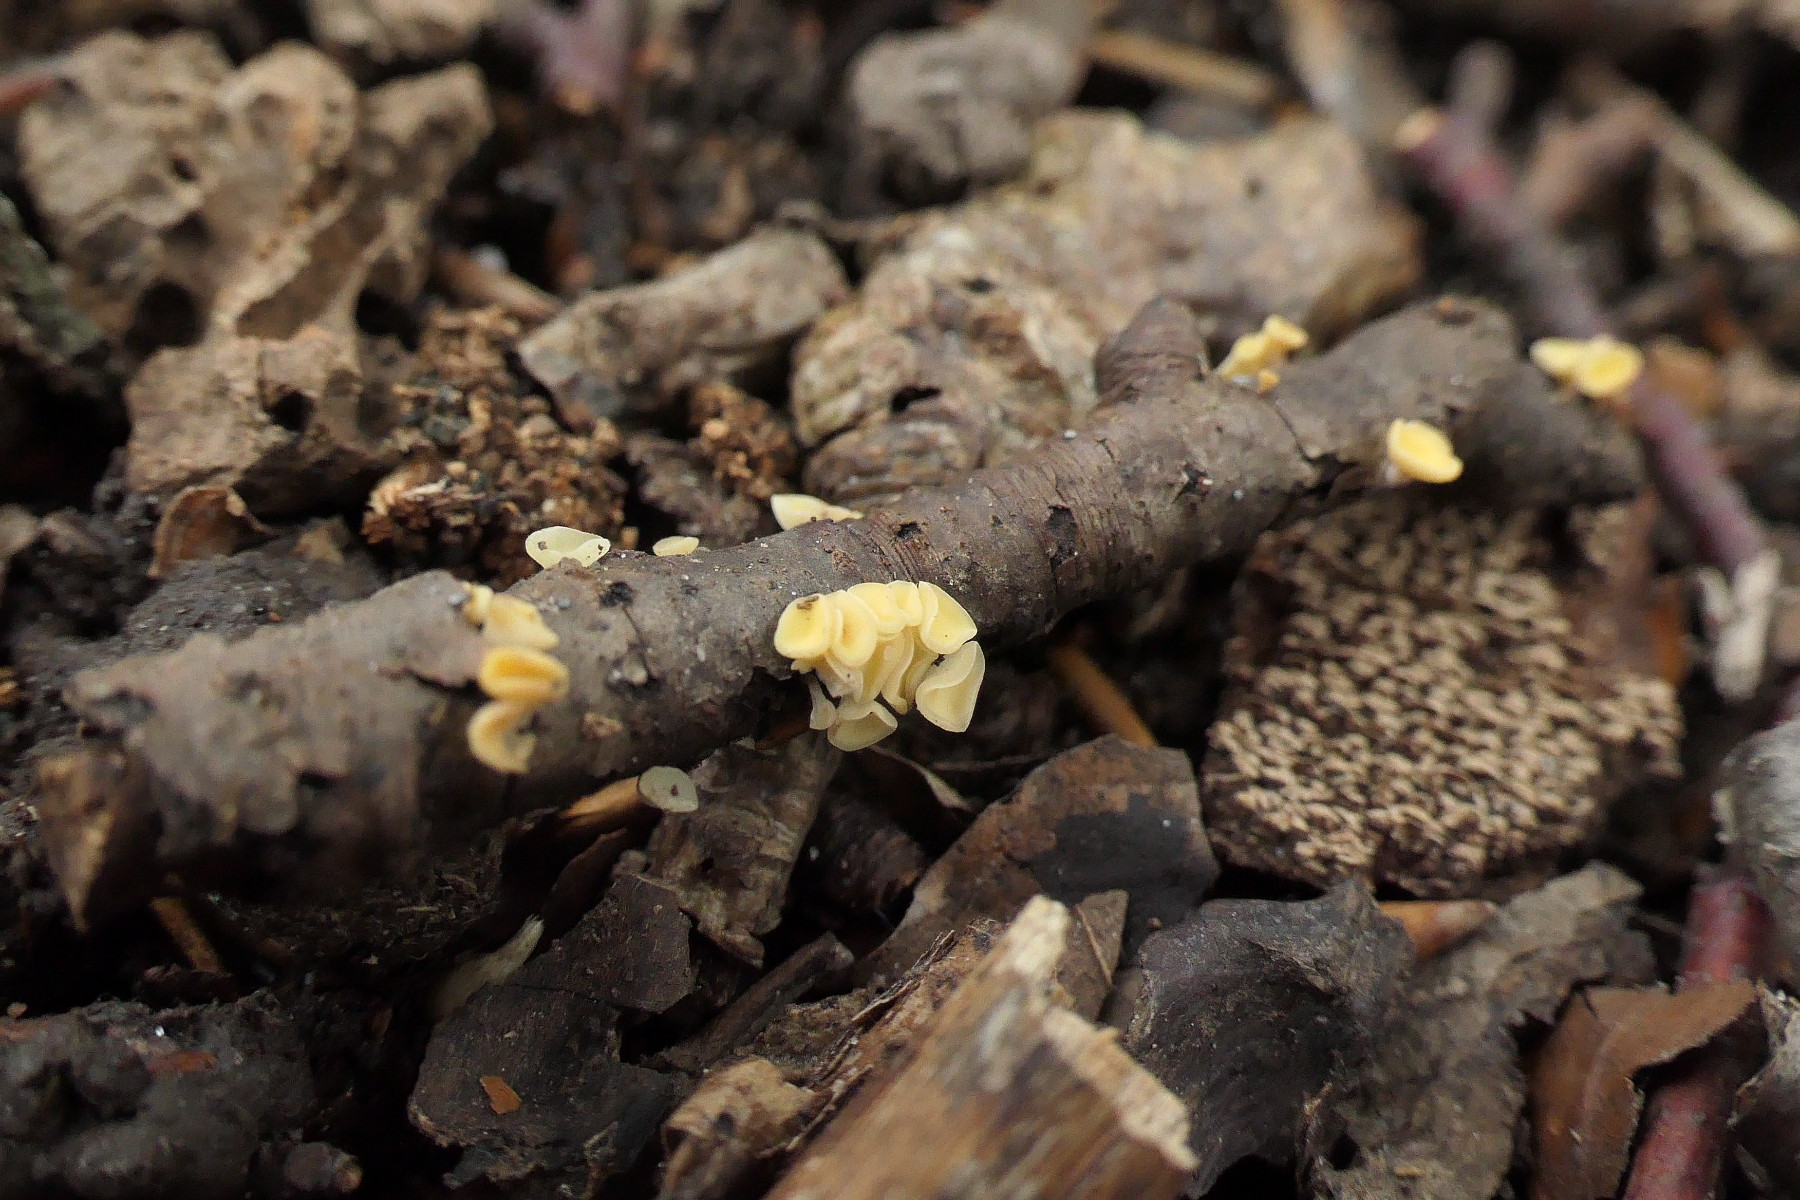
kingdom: Fungi
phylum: Ascomycota
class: Leotiomycetes
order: Helotiales
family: Helotiaceae
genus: Hymenoscyphus
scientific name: Hymenoscyphus serotinus
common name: krumsporet stilkskive
